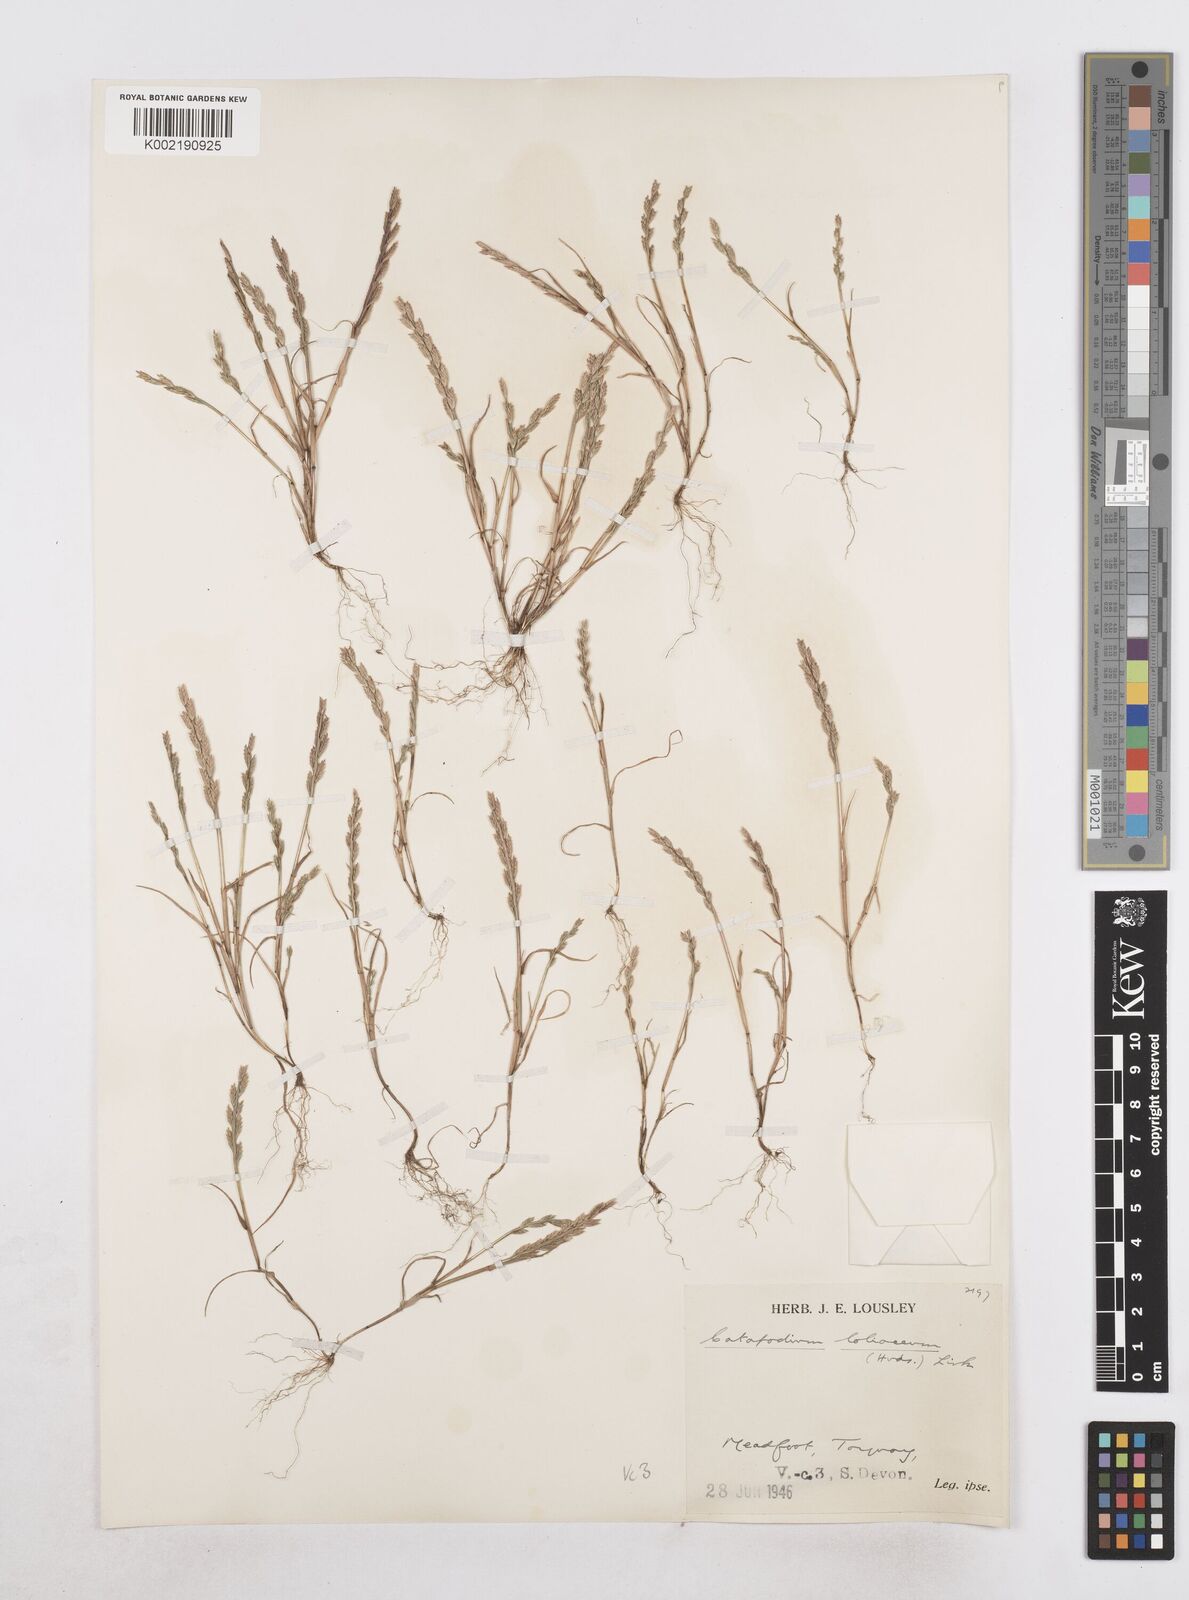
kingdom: Plantae
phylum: Tracheophyta
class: Liliopsida
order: Poales
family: Poaceae
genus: Catapodium
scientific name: Catapodium marinum
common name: Sea fern-grass
